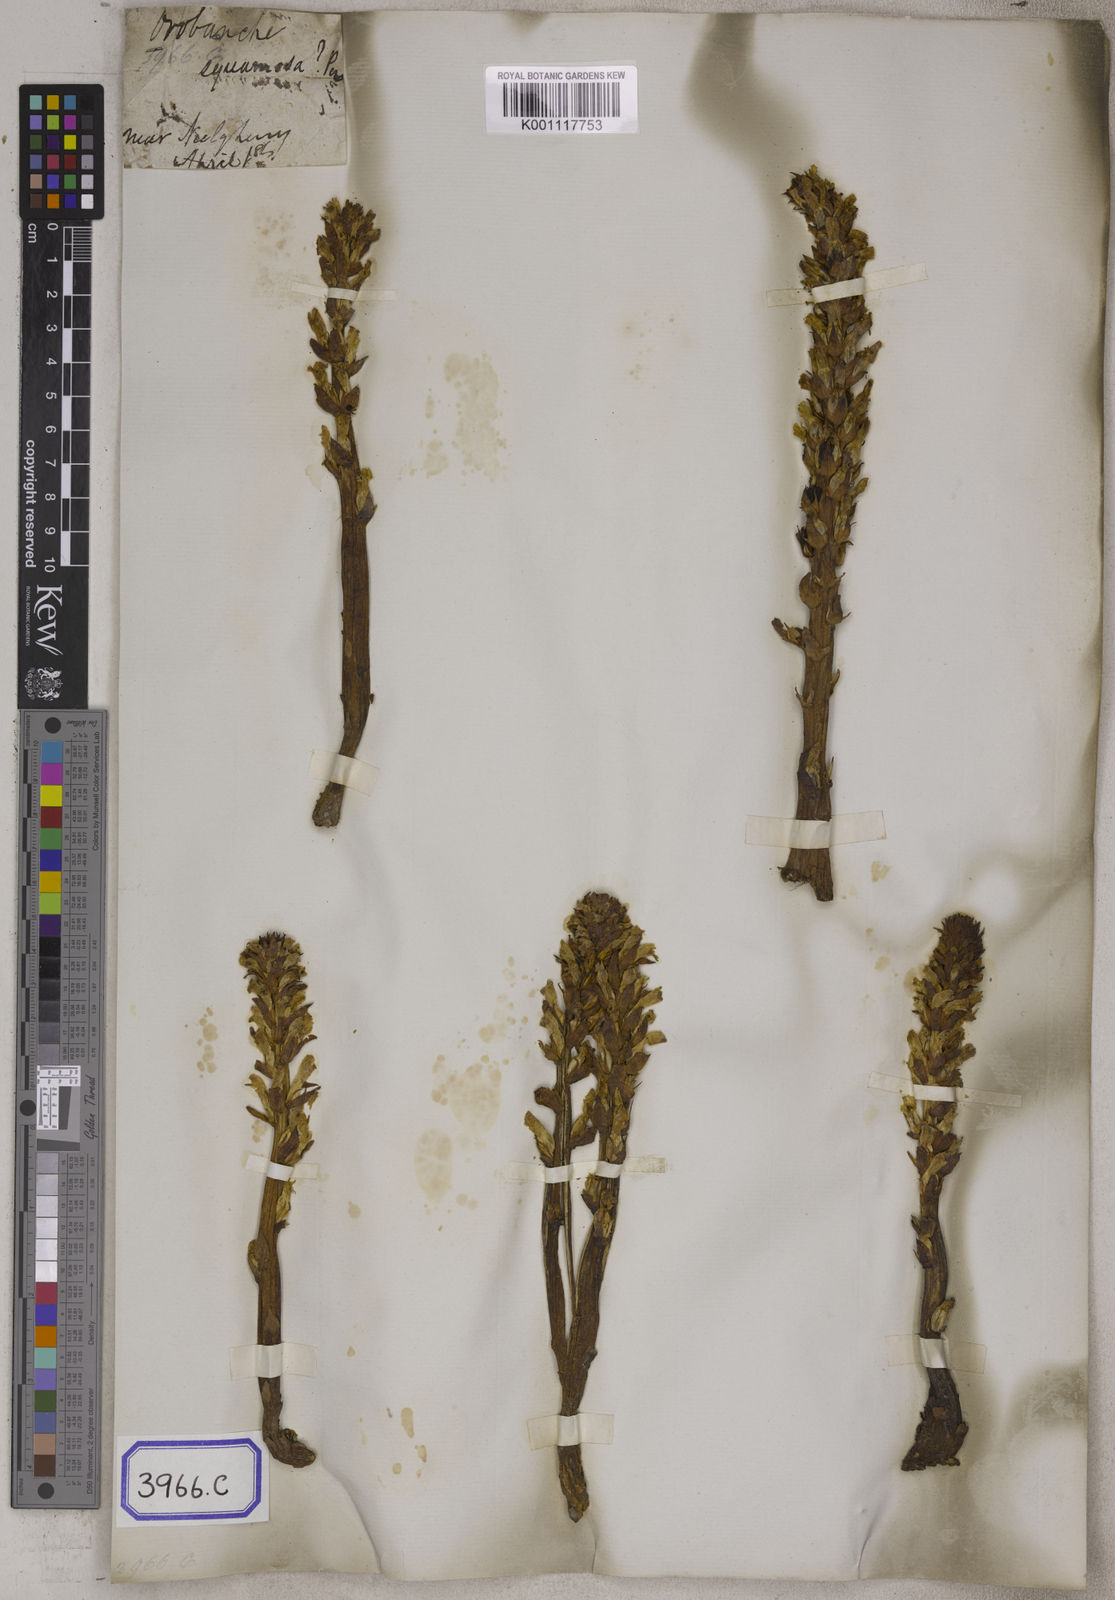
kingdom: Plantae
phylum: Tracheophyta
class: Magnoliopsida
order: Lamiales
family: Orobanchaceae
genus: Orobanche
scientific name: Orobanche cernua
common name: Australian broomrape
